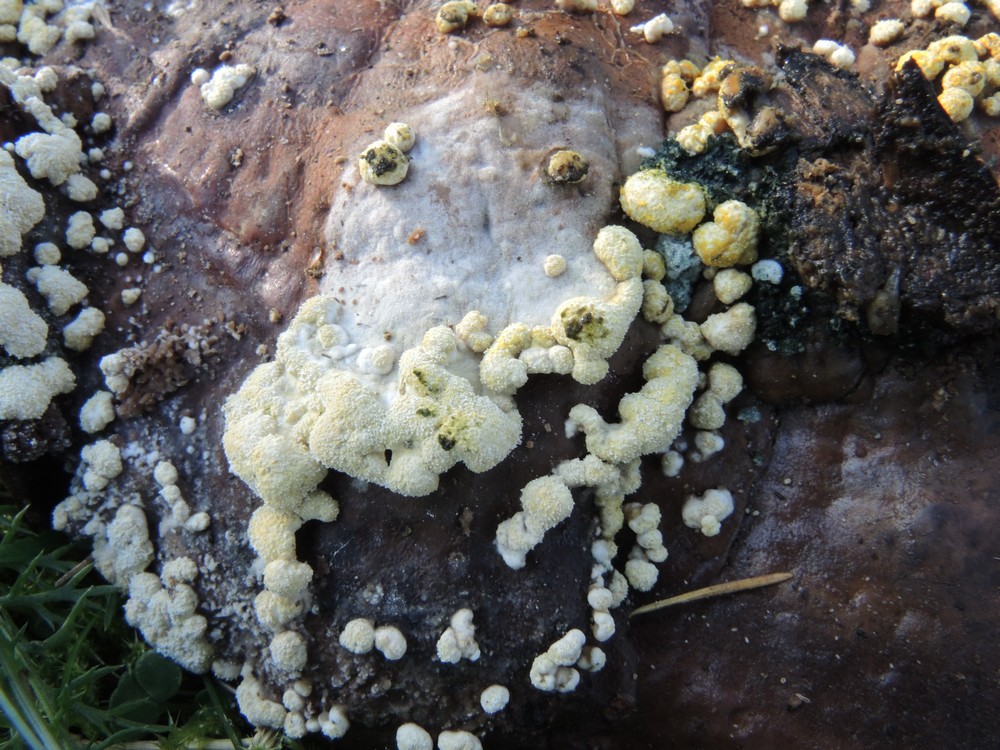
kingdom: Fungi
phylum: Ascomycota
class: Sordariomycetes
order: Hypocreales
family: Hypocreaceae
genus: Trichoderma
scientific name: Trichoderma pulvinatum
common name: snyltende kødkerne
